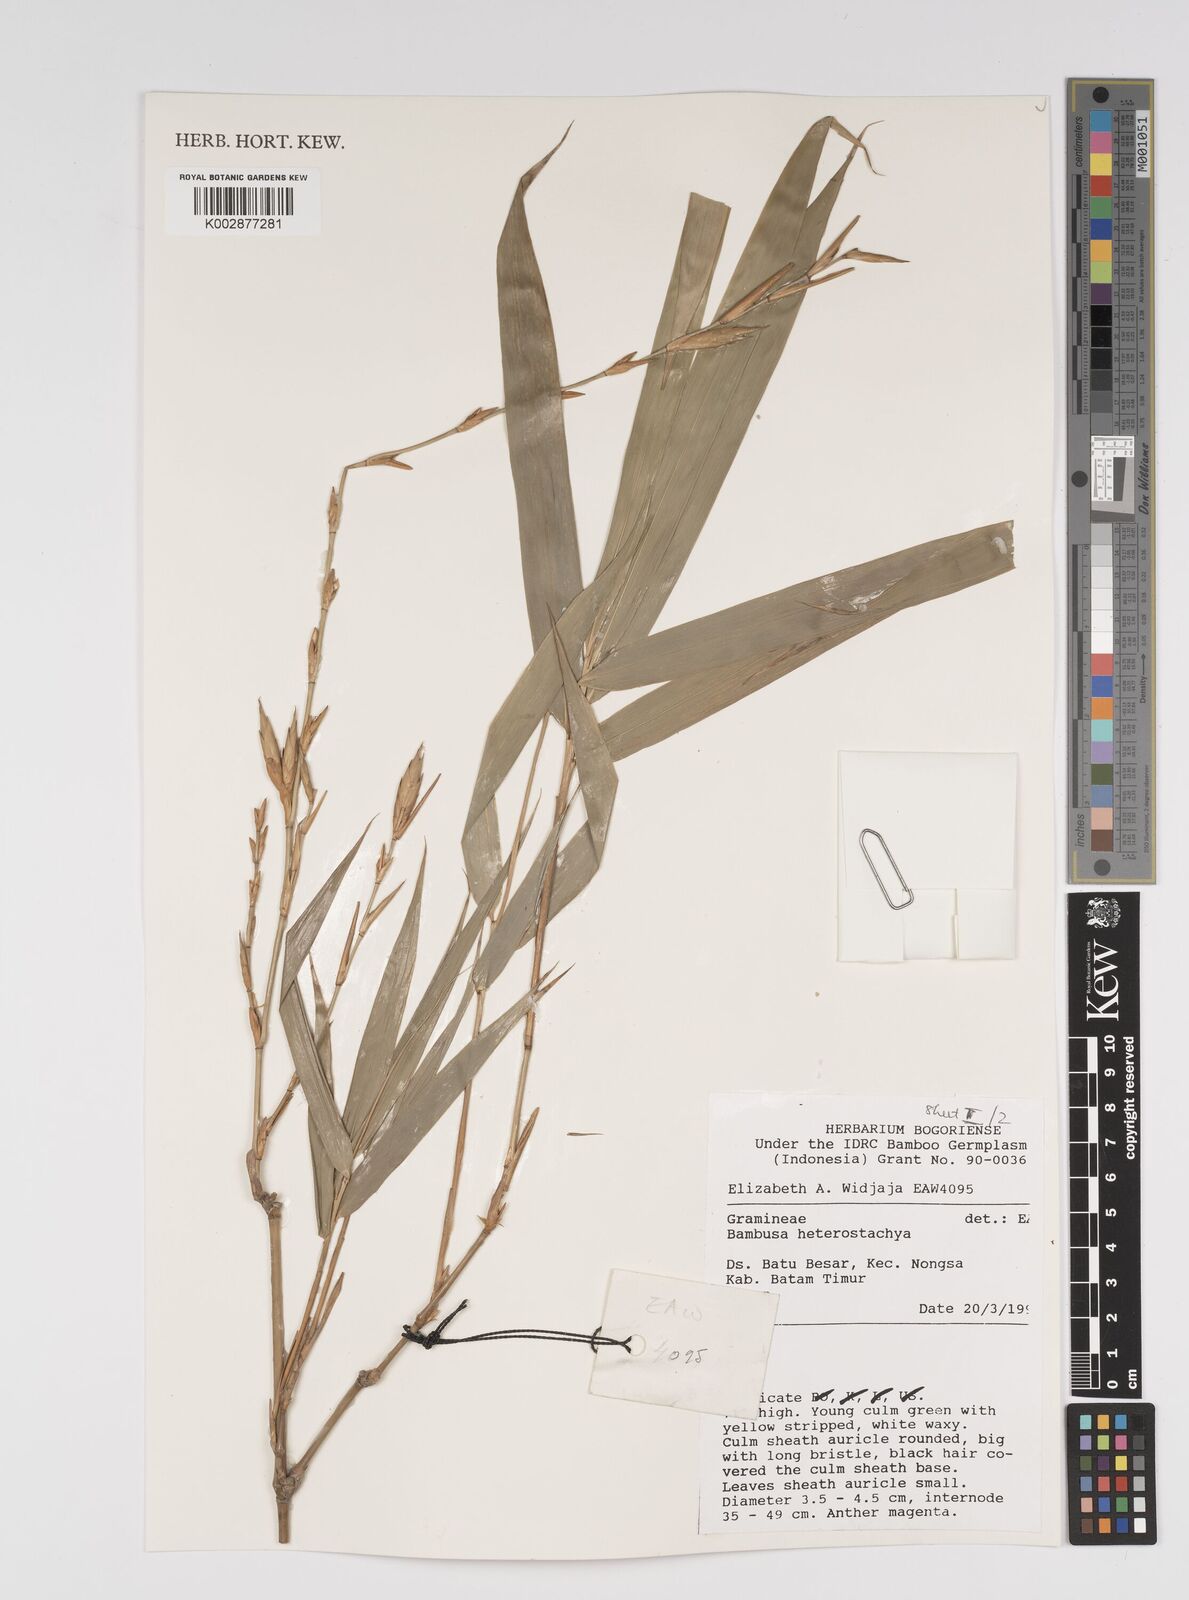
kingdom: Plantae
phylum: Tracheophyta
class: Liliopsida
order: Poales
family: Poaceae
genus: Bambusa
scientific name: Bambusa heterostachya
